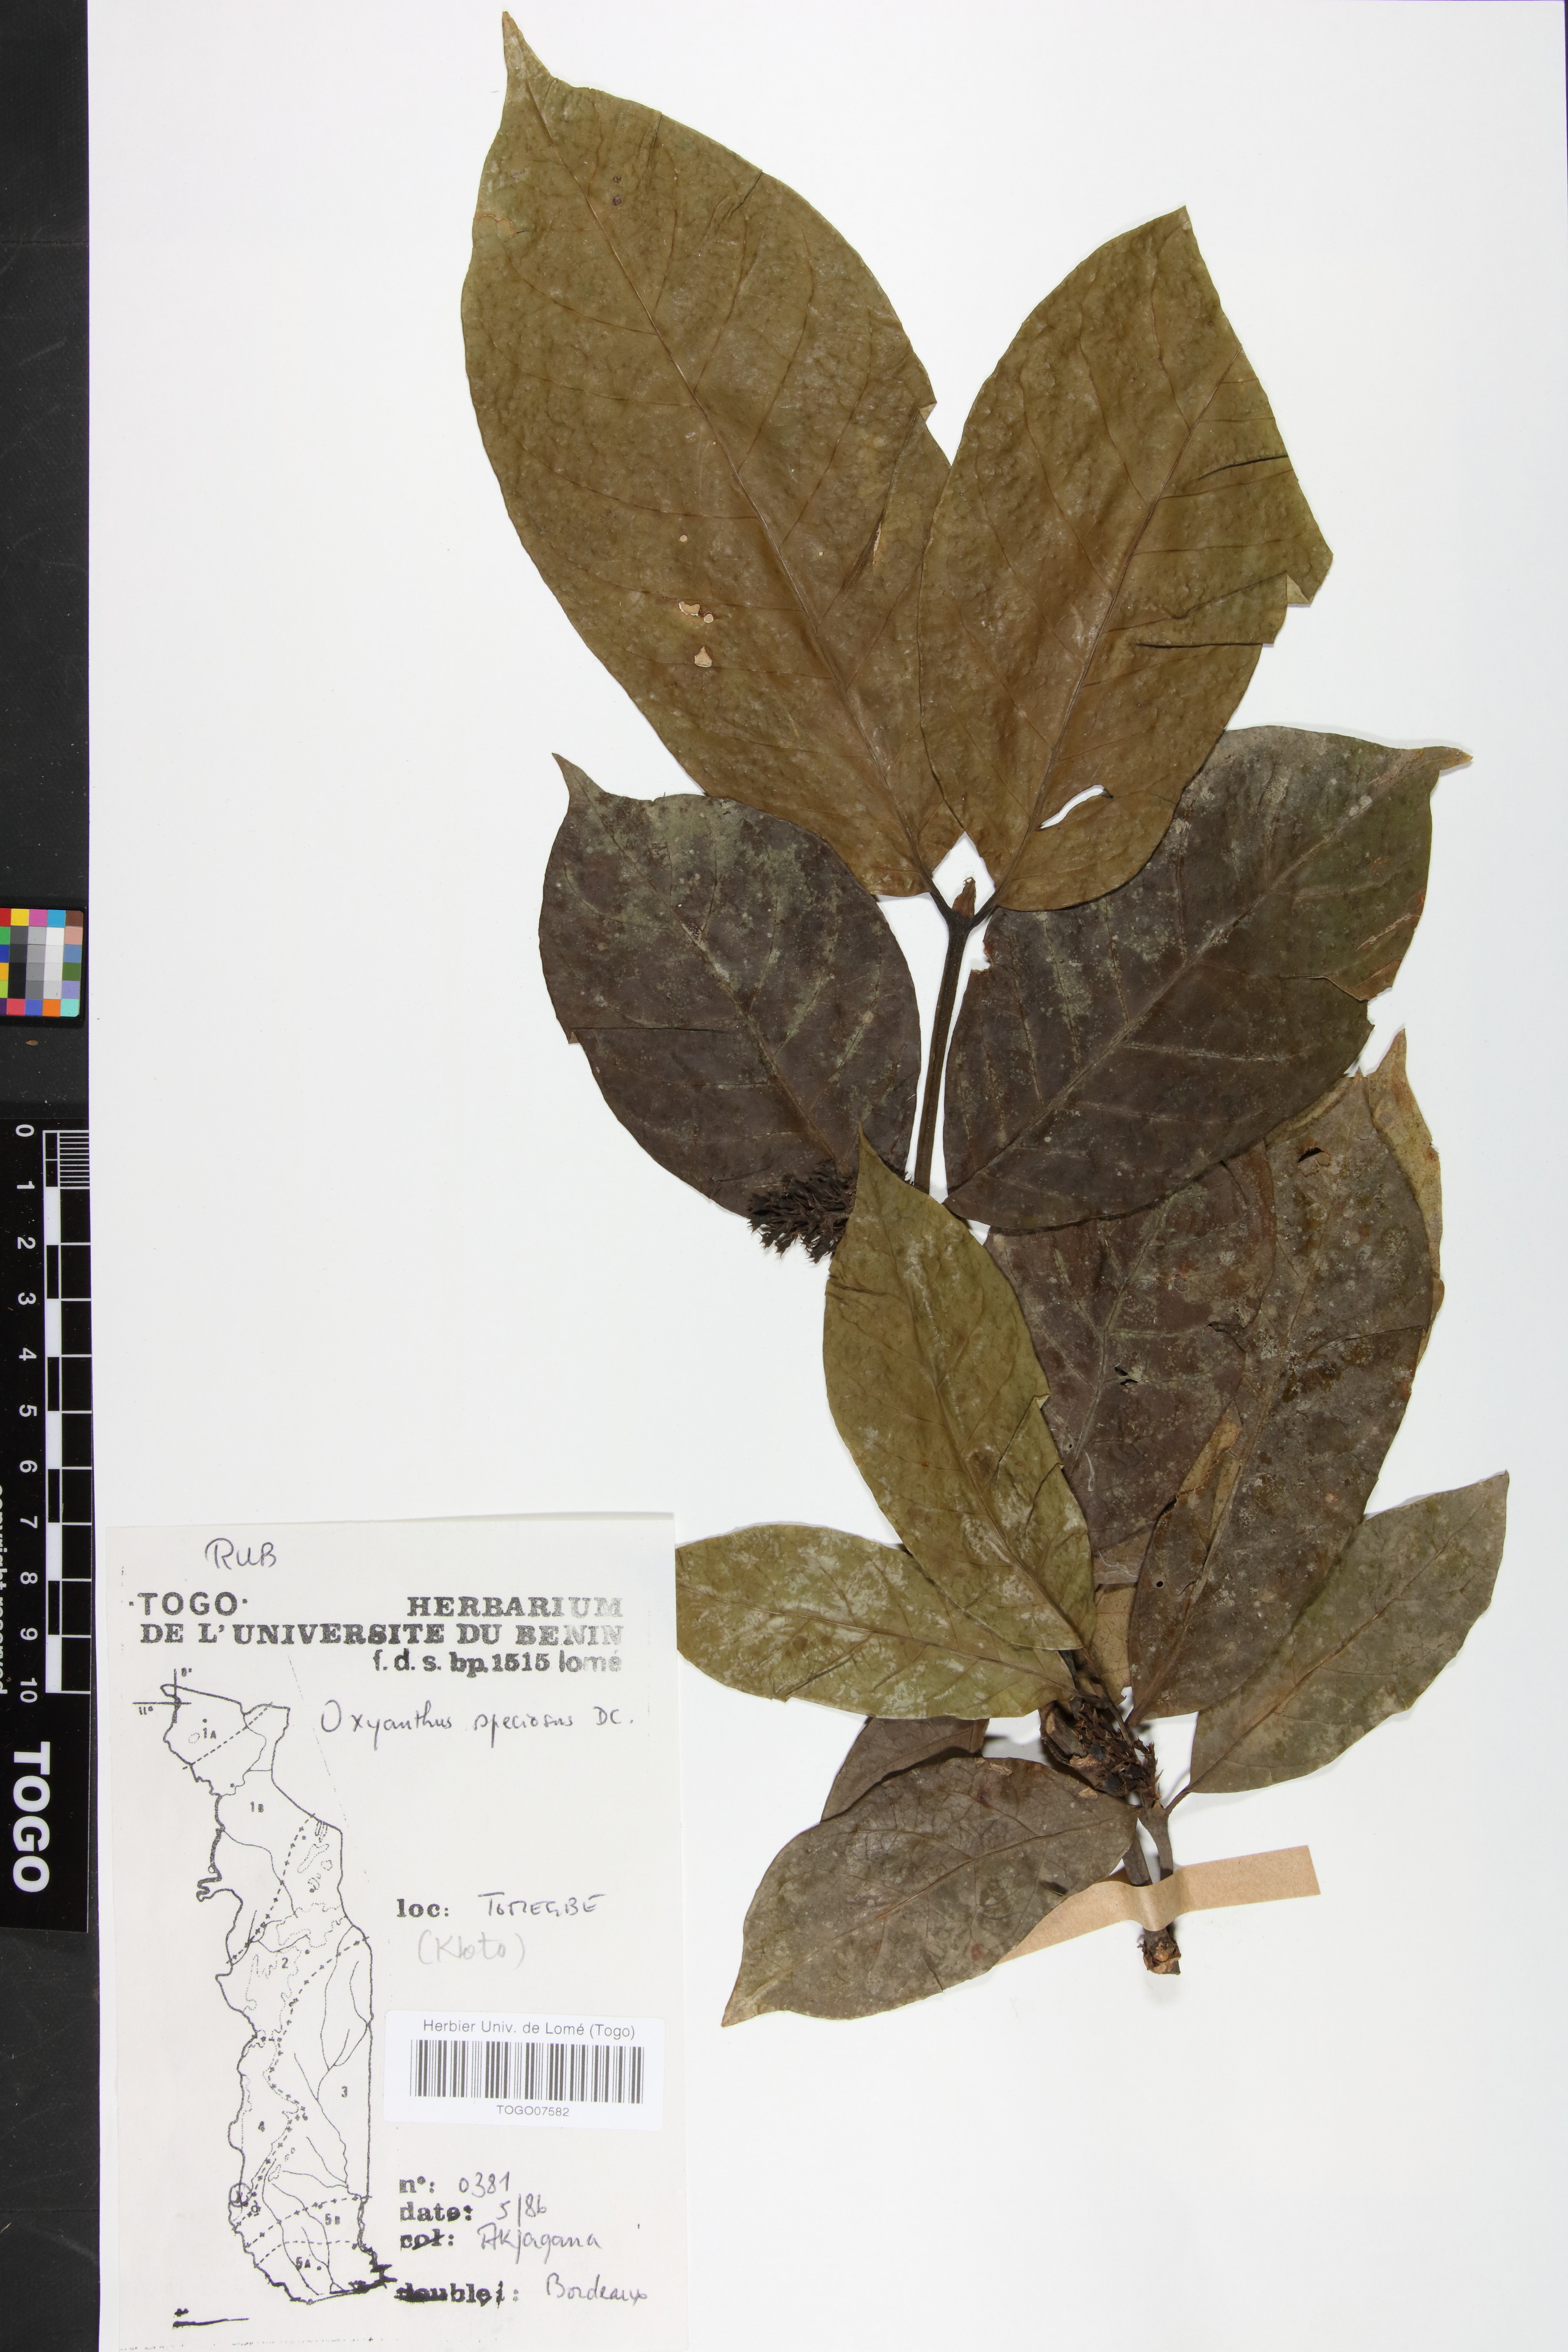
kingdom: Plantae
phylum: Tracheophyta
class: Magnoliopsida
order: Gentianales
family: Rubiaceae
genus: Oxyanthus
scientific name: Oxyanthus speciosus
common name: Whipstick loquat
